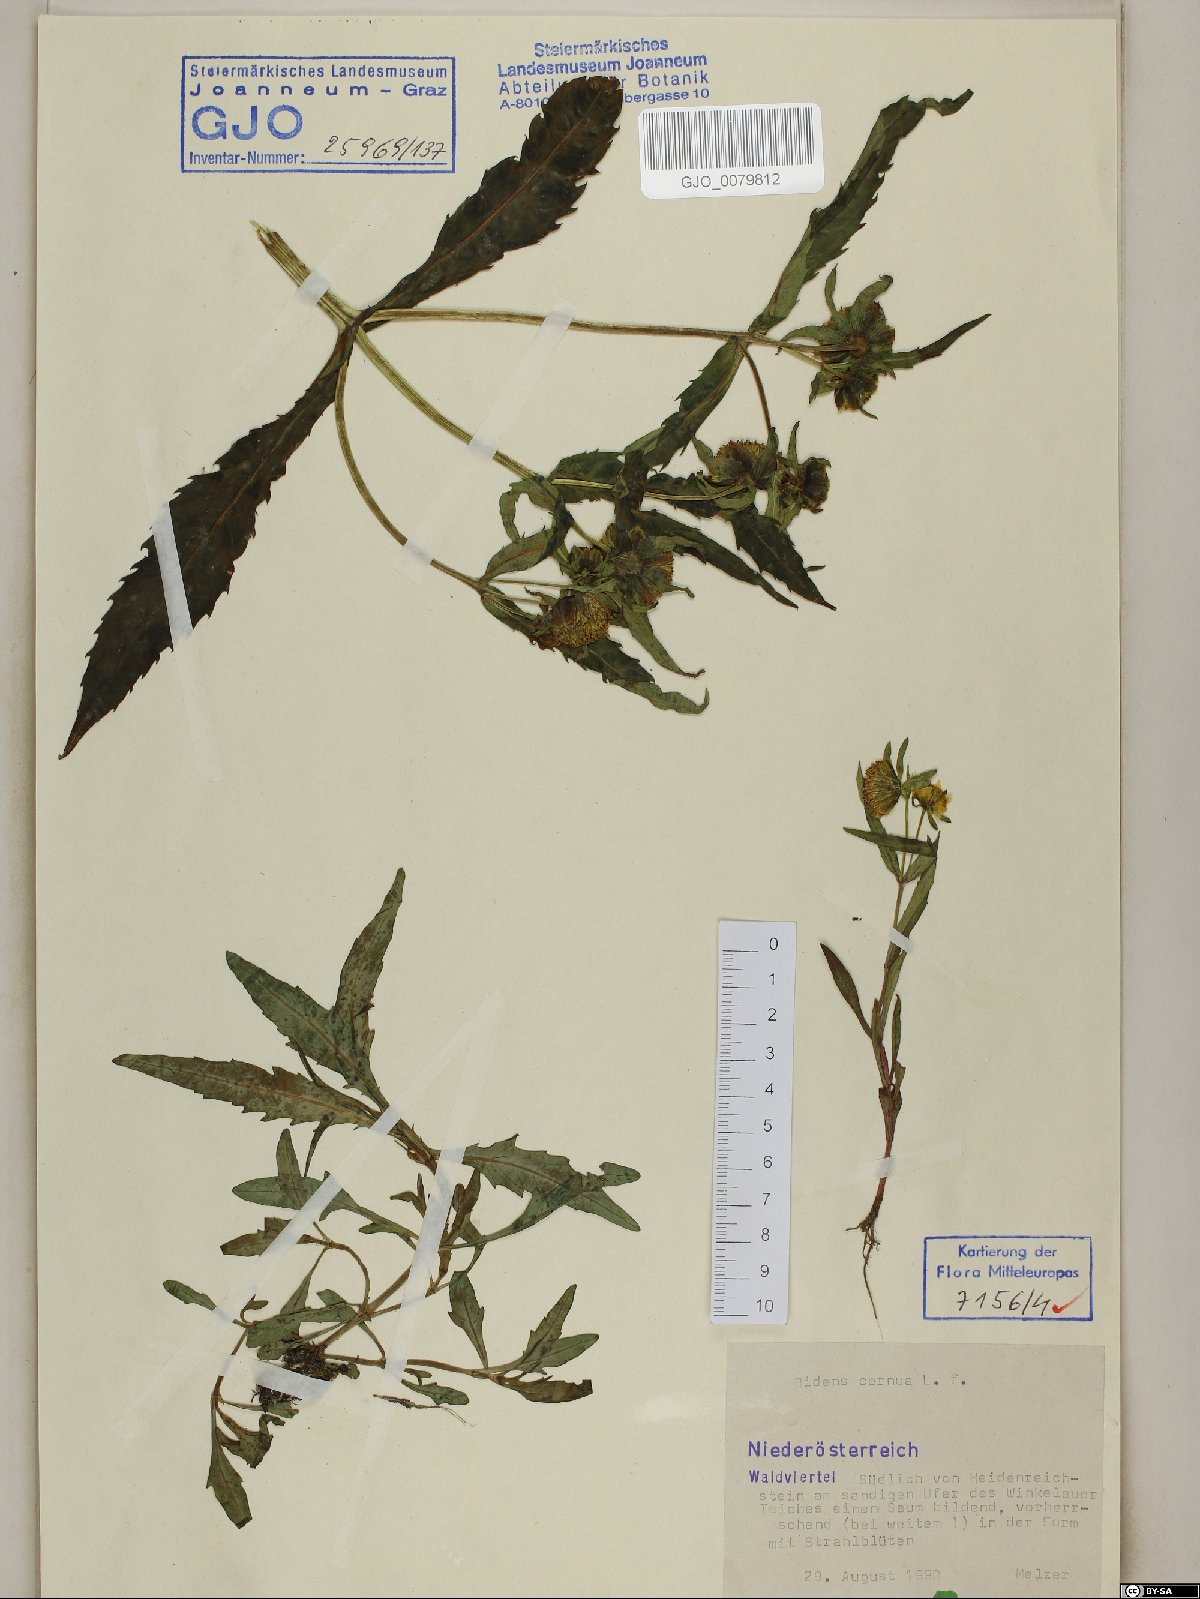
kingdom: Plantae
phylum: Tracheophyta
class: Magnoliopsida
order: Asterales
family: Asteraceae
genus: Bidens
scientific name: Bidens cernua
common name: Nodding bur-marigold
